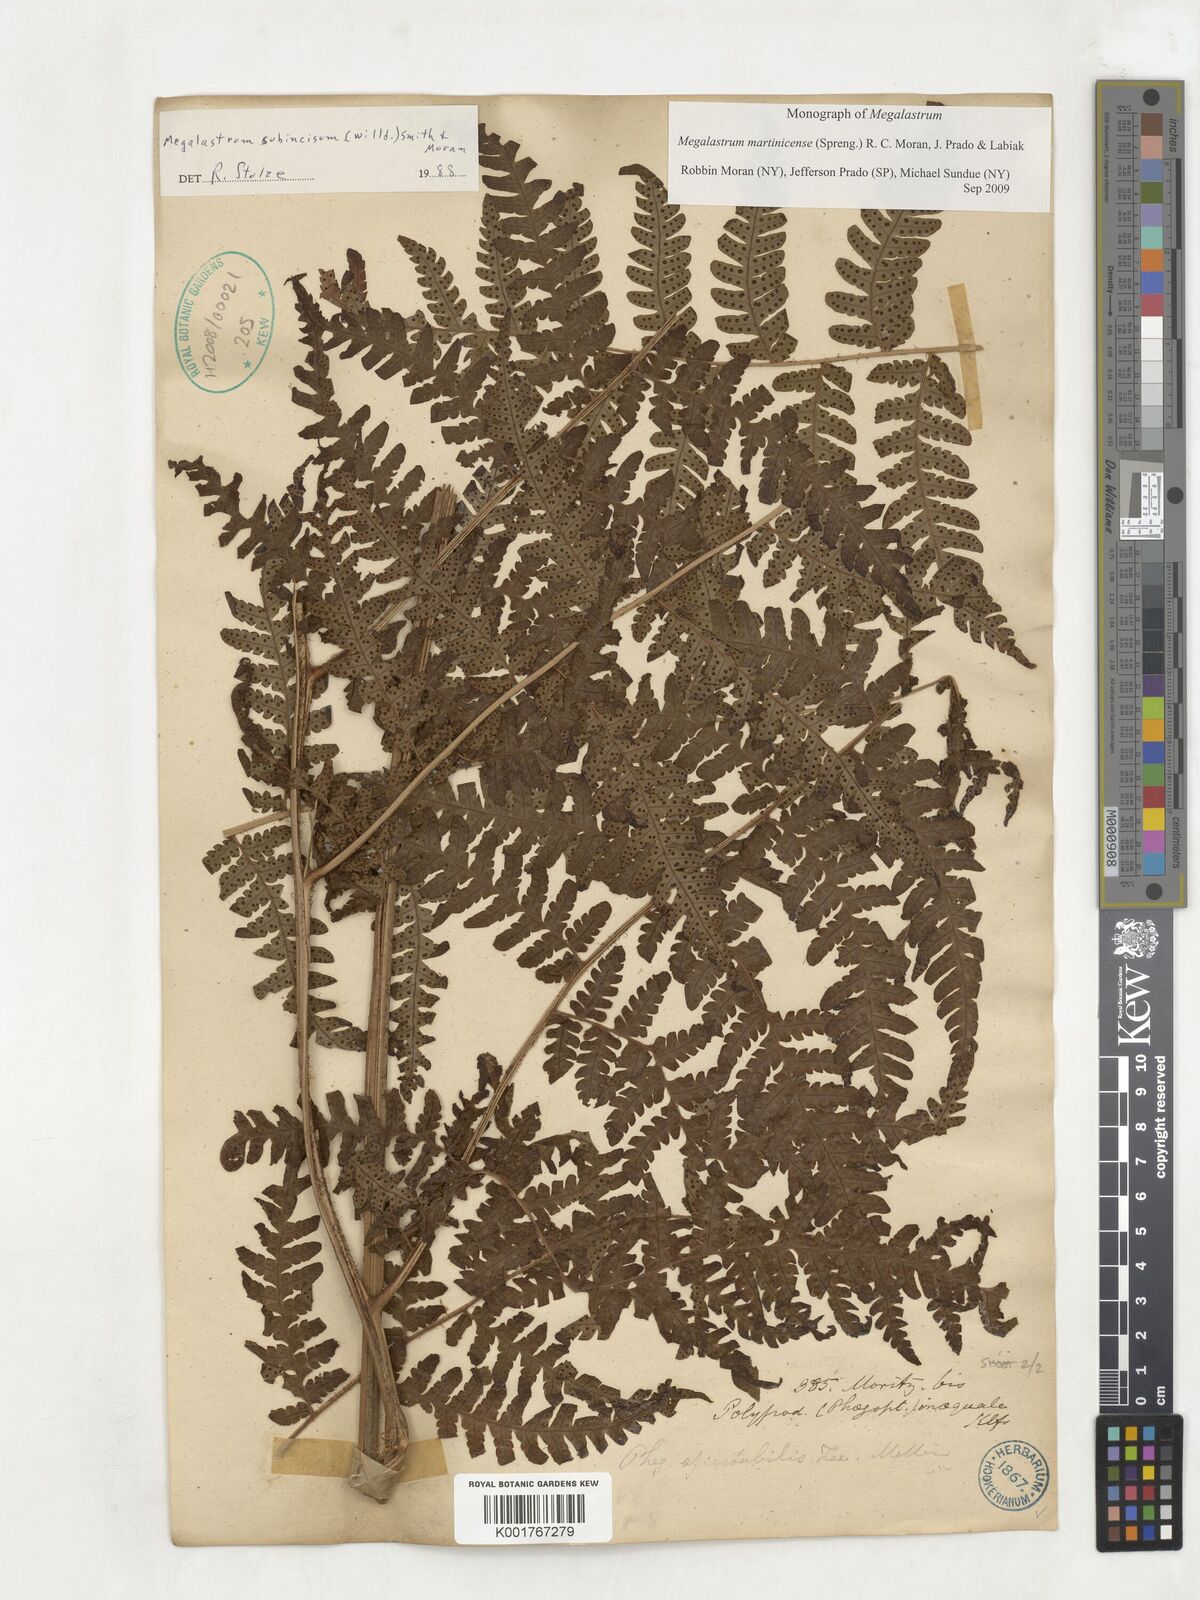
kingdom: Plantae
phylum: Tracheophyta
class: Polypodiopsida
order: Polypodiales
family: Dryopteridaceae
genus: Megalastrum
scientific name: Megalastrum martinicense
